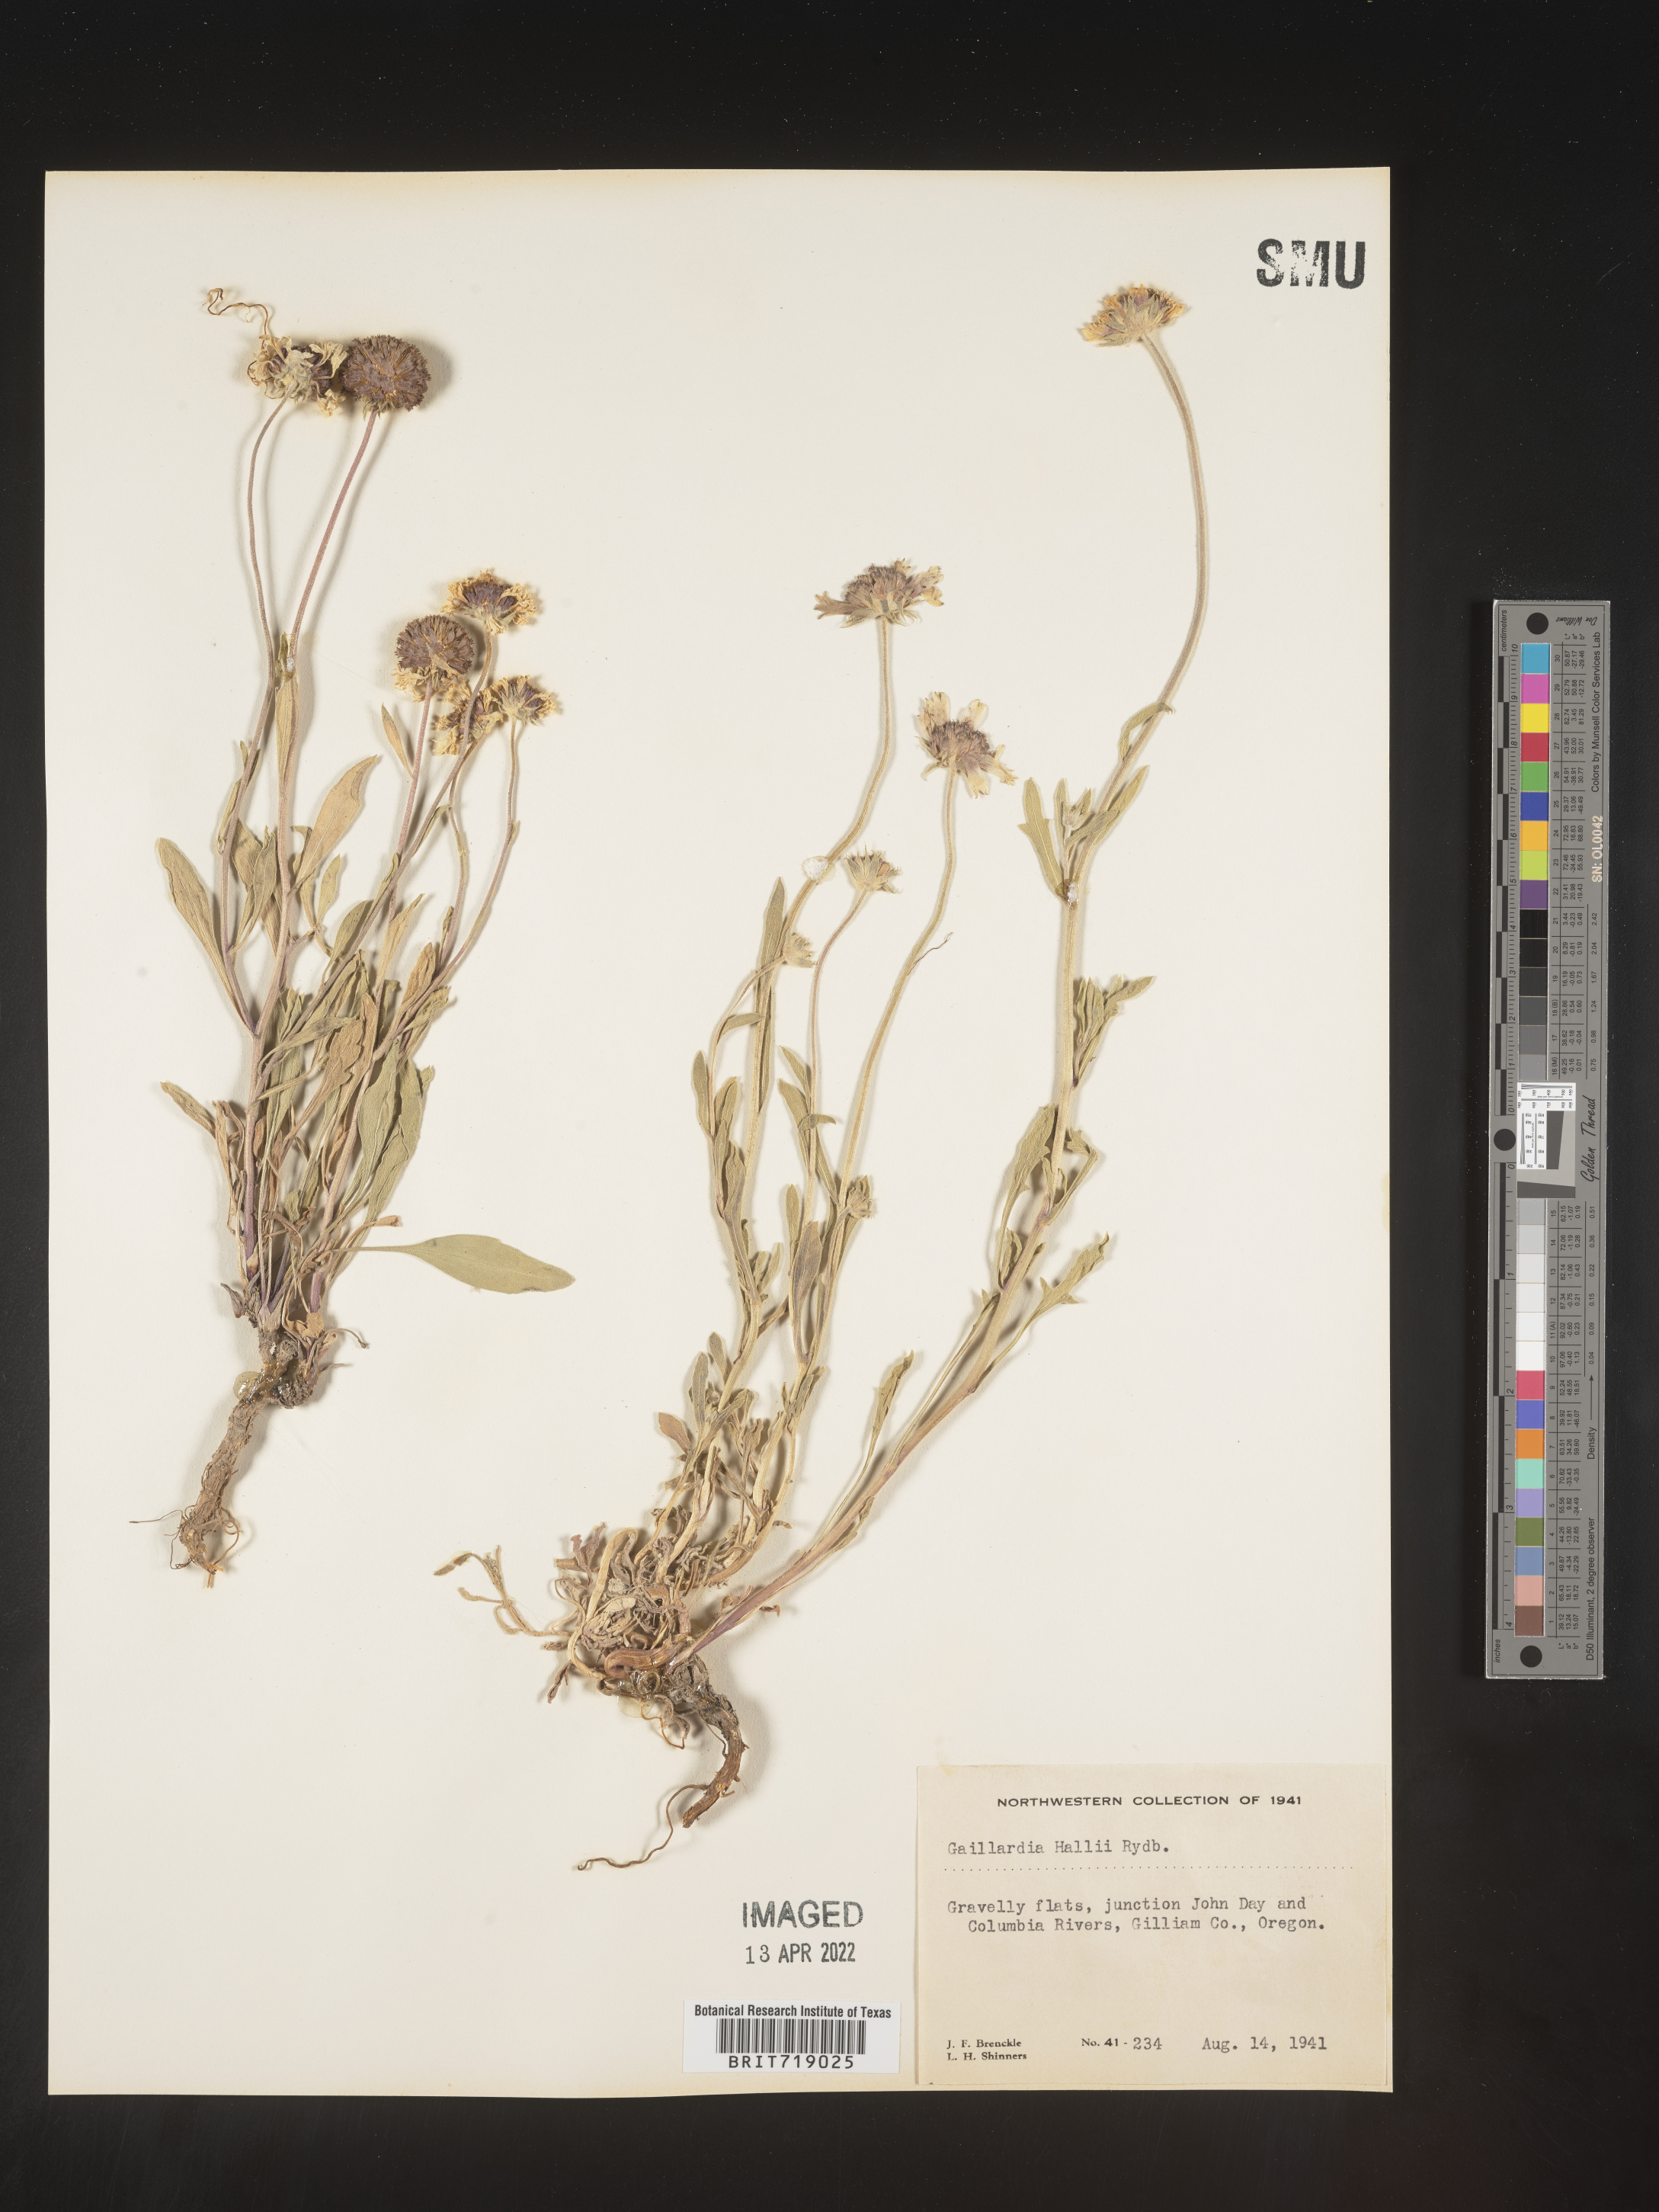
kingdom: Plantae
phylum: Tracheophyta
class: Magnoliopsida
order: Asterales
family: Asteraceae
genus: Gaillardia
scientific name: Gaillardia aristata
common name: Blanket-flower
